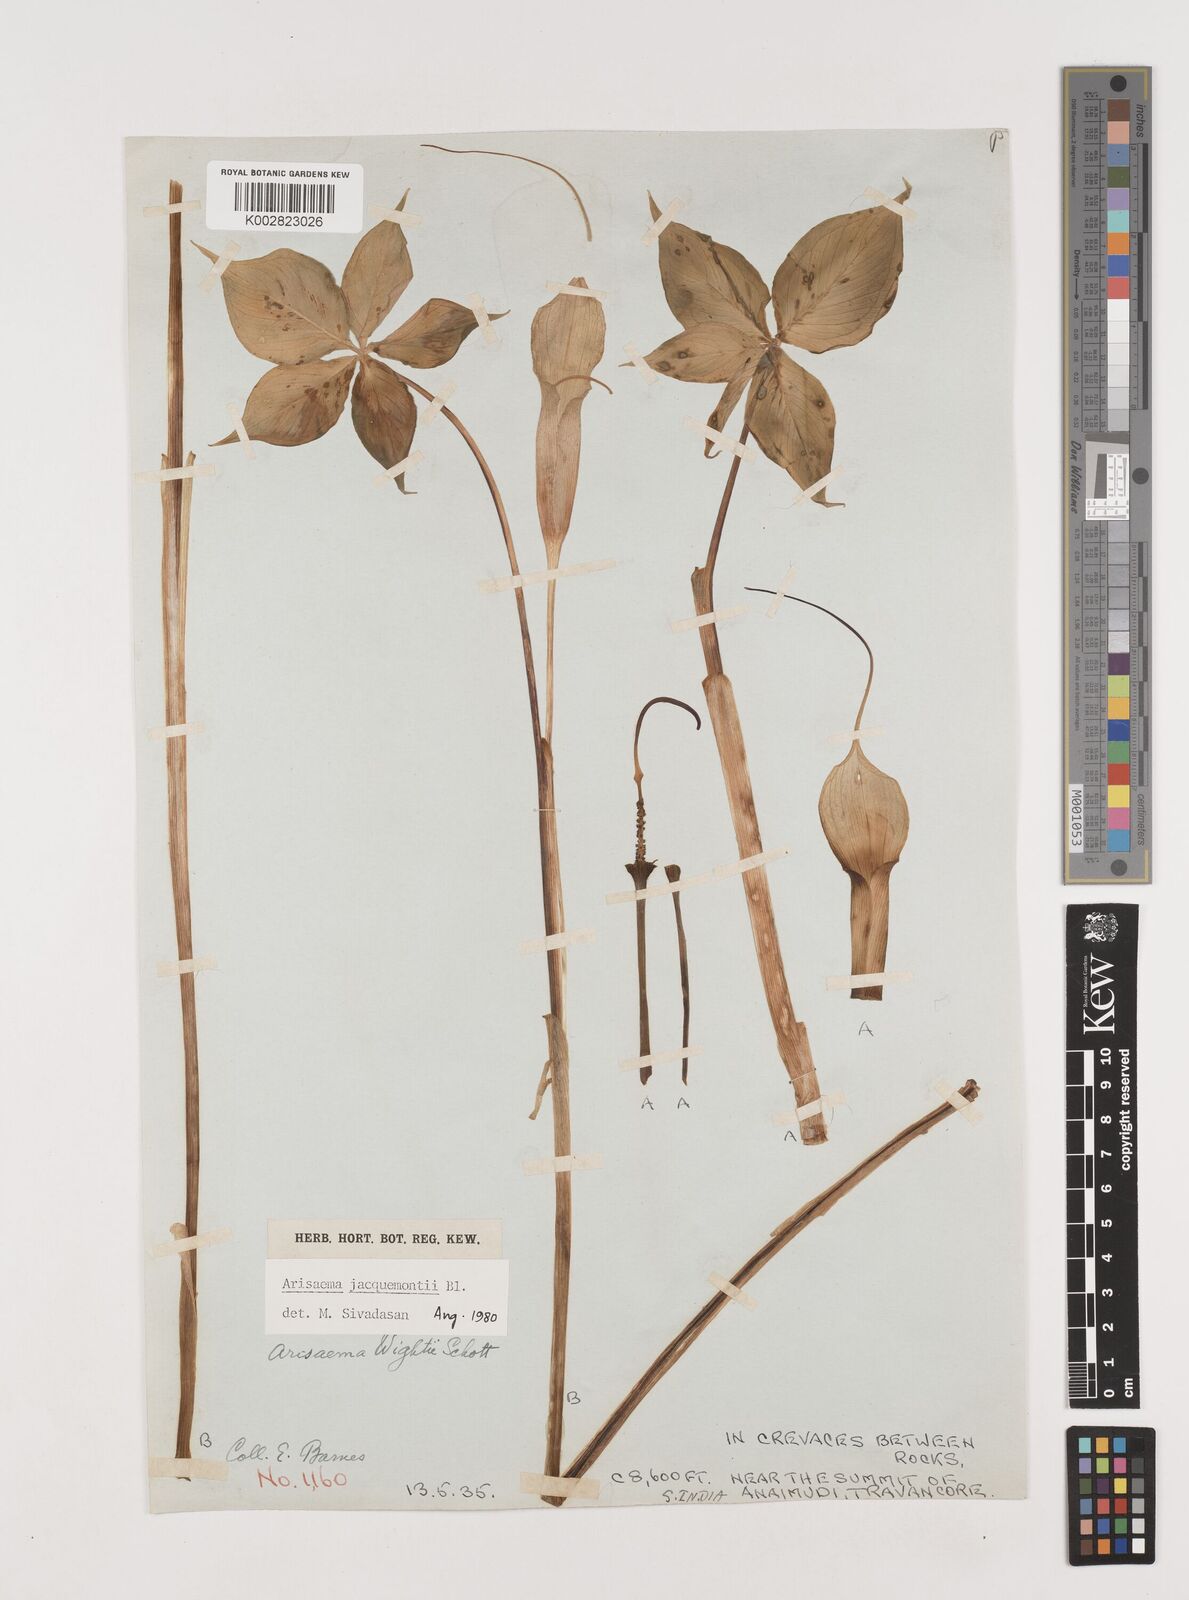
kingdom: Plantae
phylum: Tracheophyta
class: Liliopsida
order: Alismatales
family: Araceae
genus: Arisaema
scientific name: Arisaema jacquemontii
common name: Jacquemont's cobra-lily
